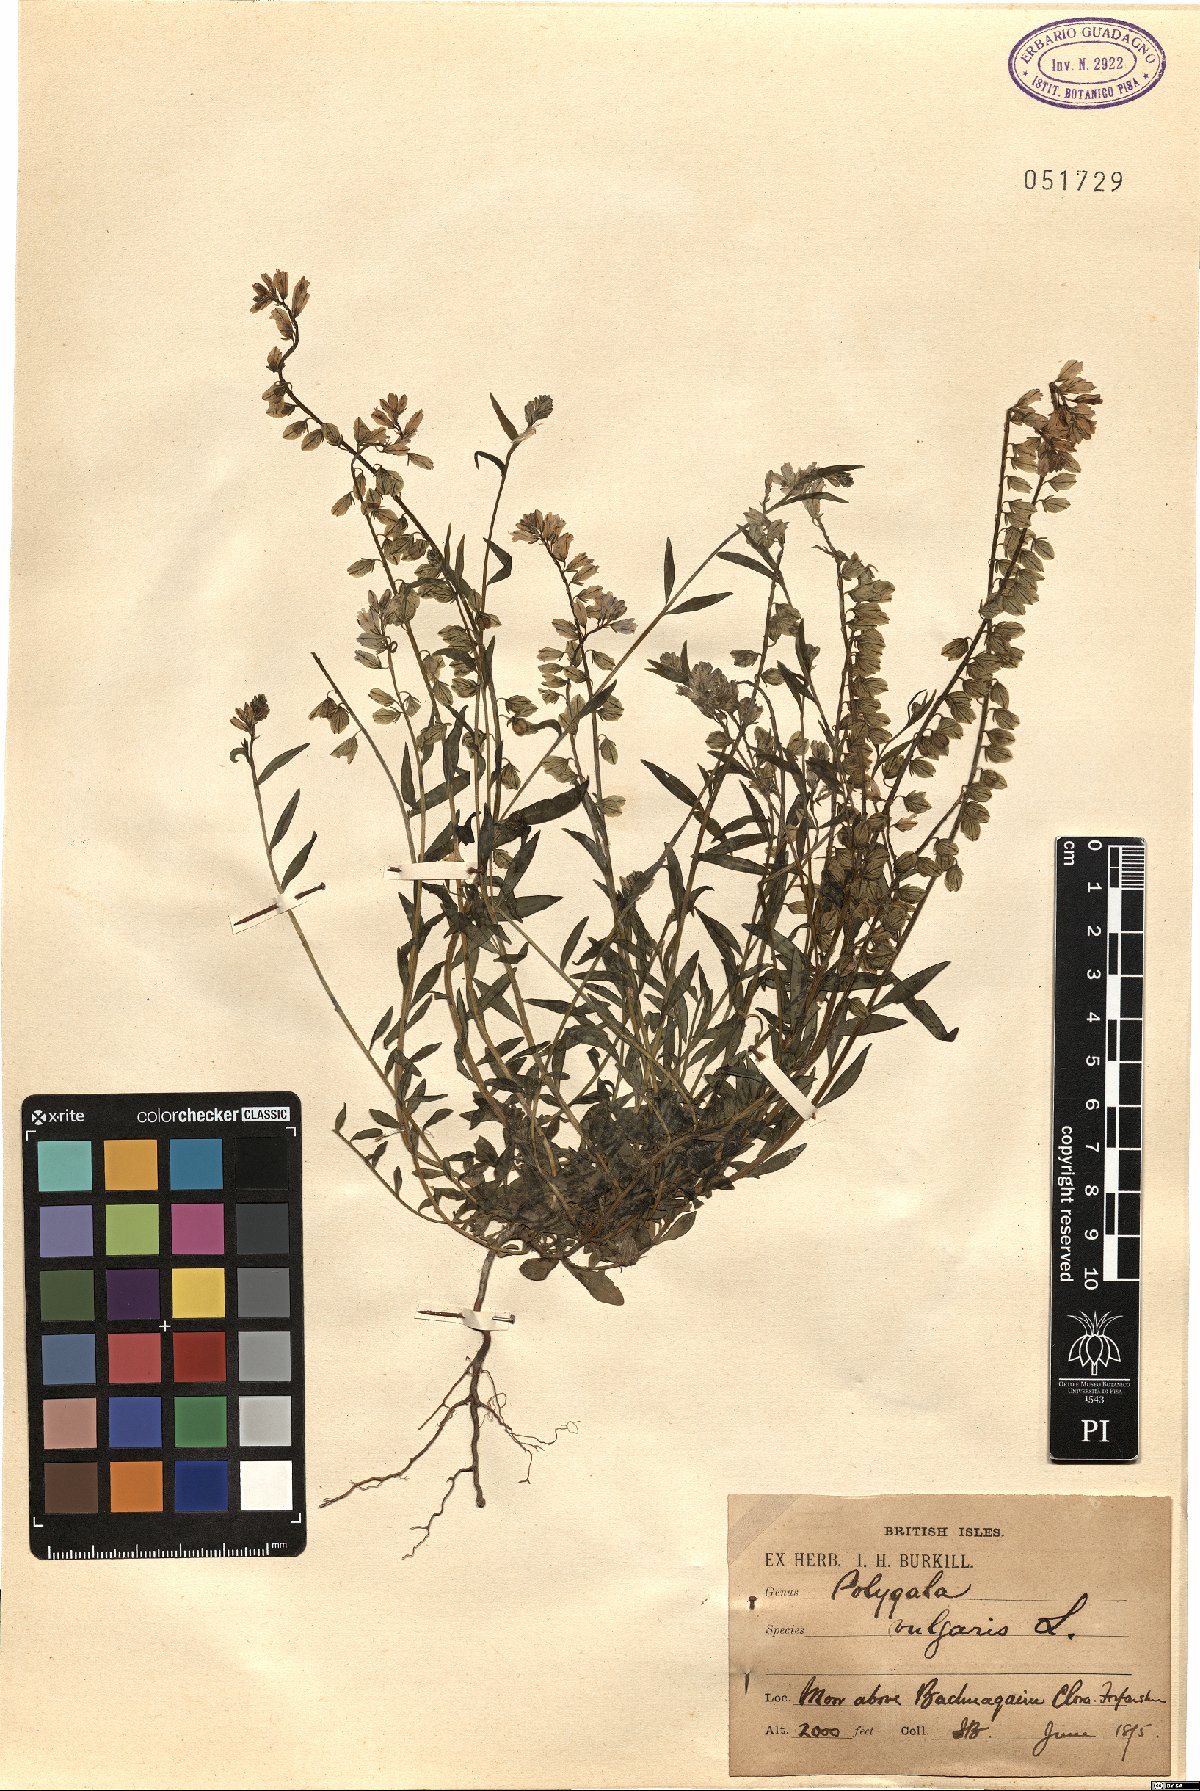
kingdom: Plantae
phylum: Tracheophyta
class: Magnoliopsida
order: Fabales
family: Polygalaceae
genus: Polygala
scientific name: Polygala vulgaris
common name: Common milkwort
